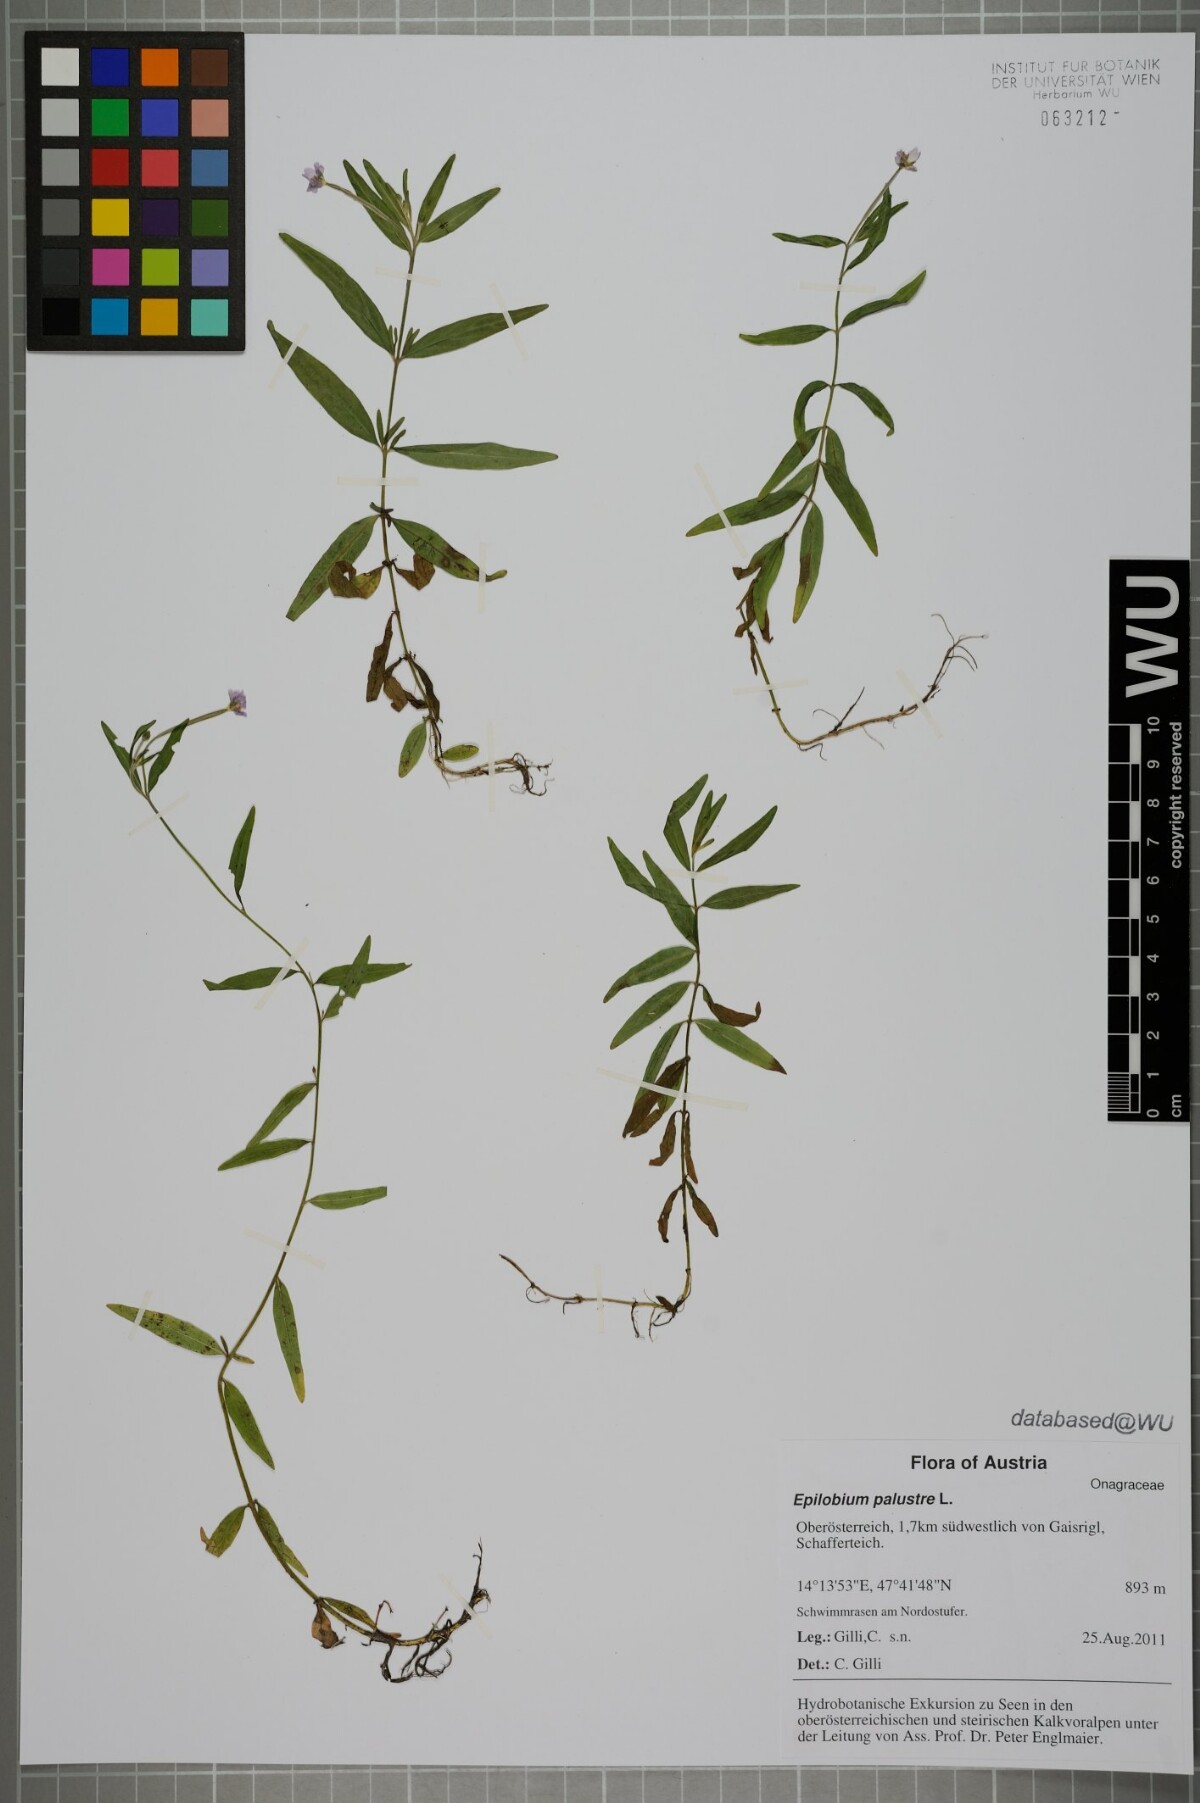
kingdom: Plantae
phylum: Tracheophyta
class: Magnoliopsida
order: Myrtales
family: Onagraceae
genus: Epilobium
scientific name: Epilobium palustre
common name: Marsh willowherb
